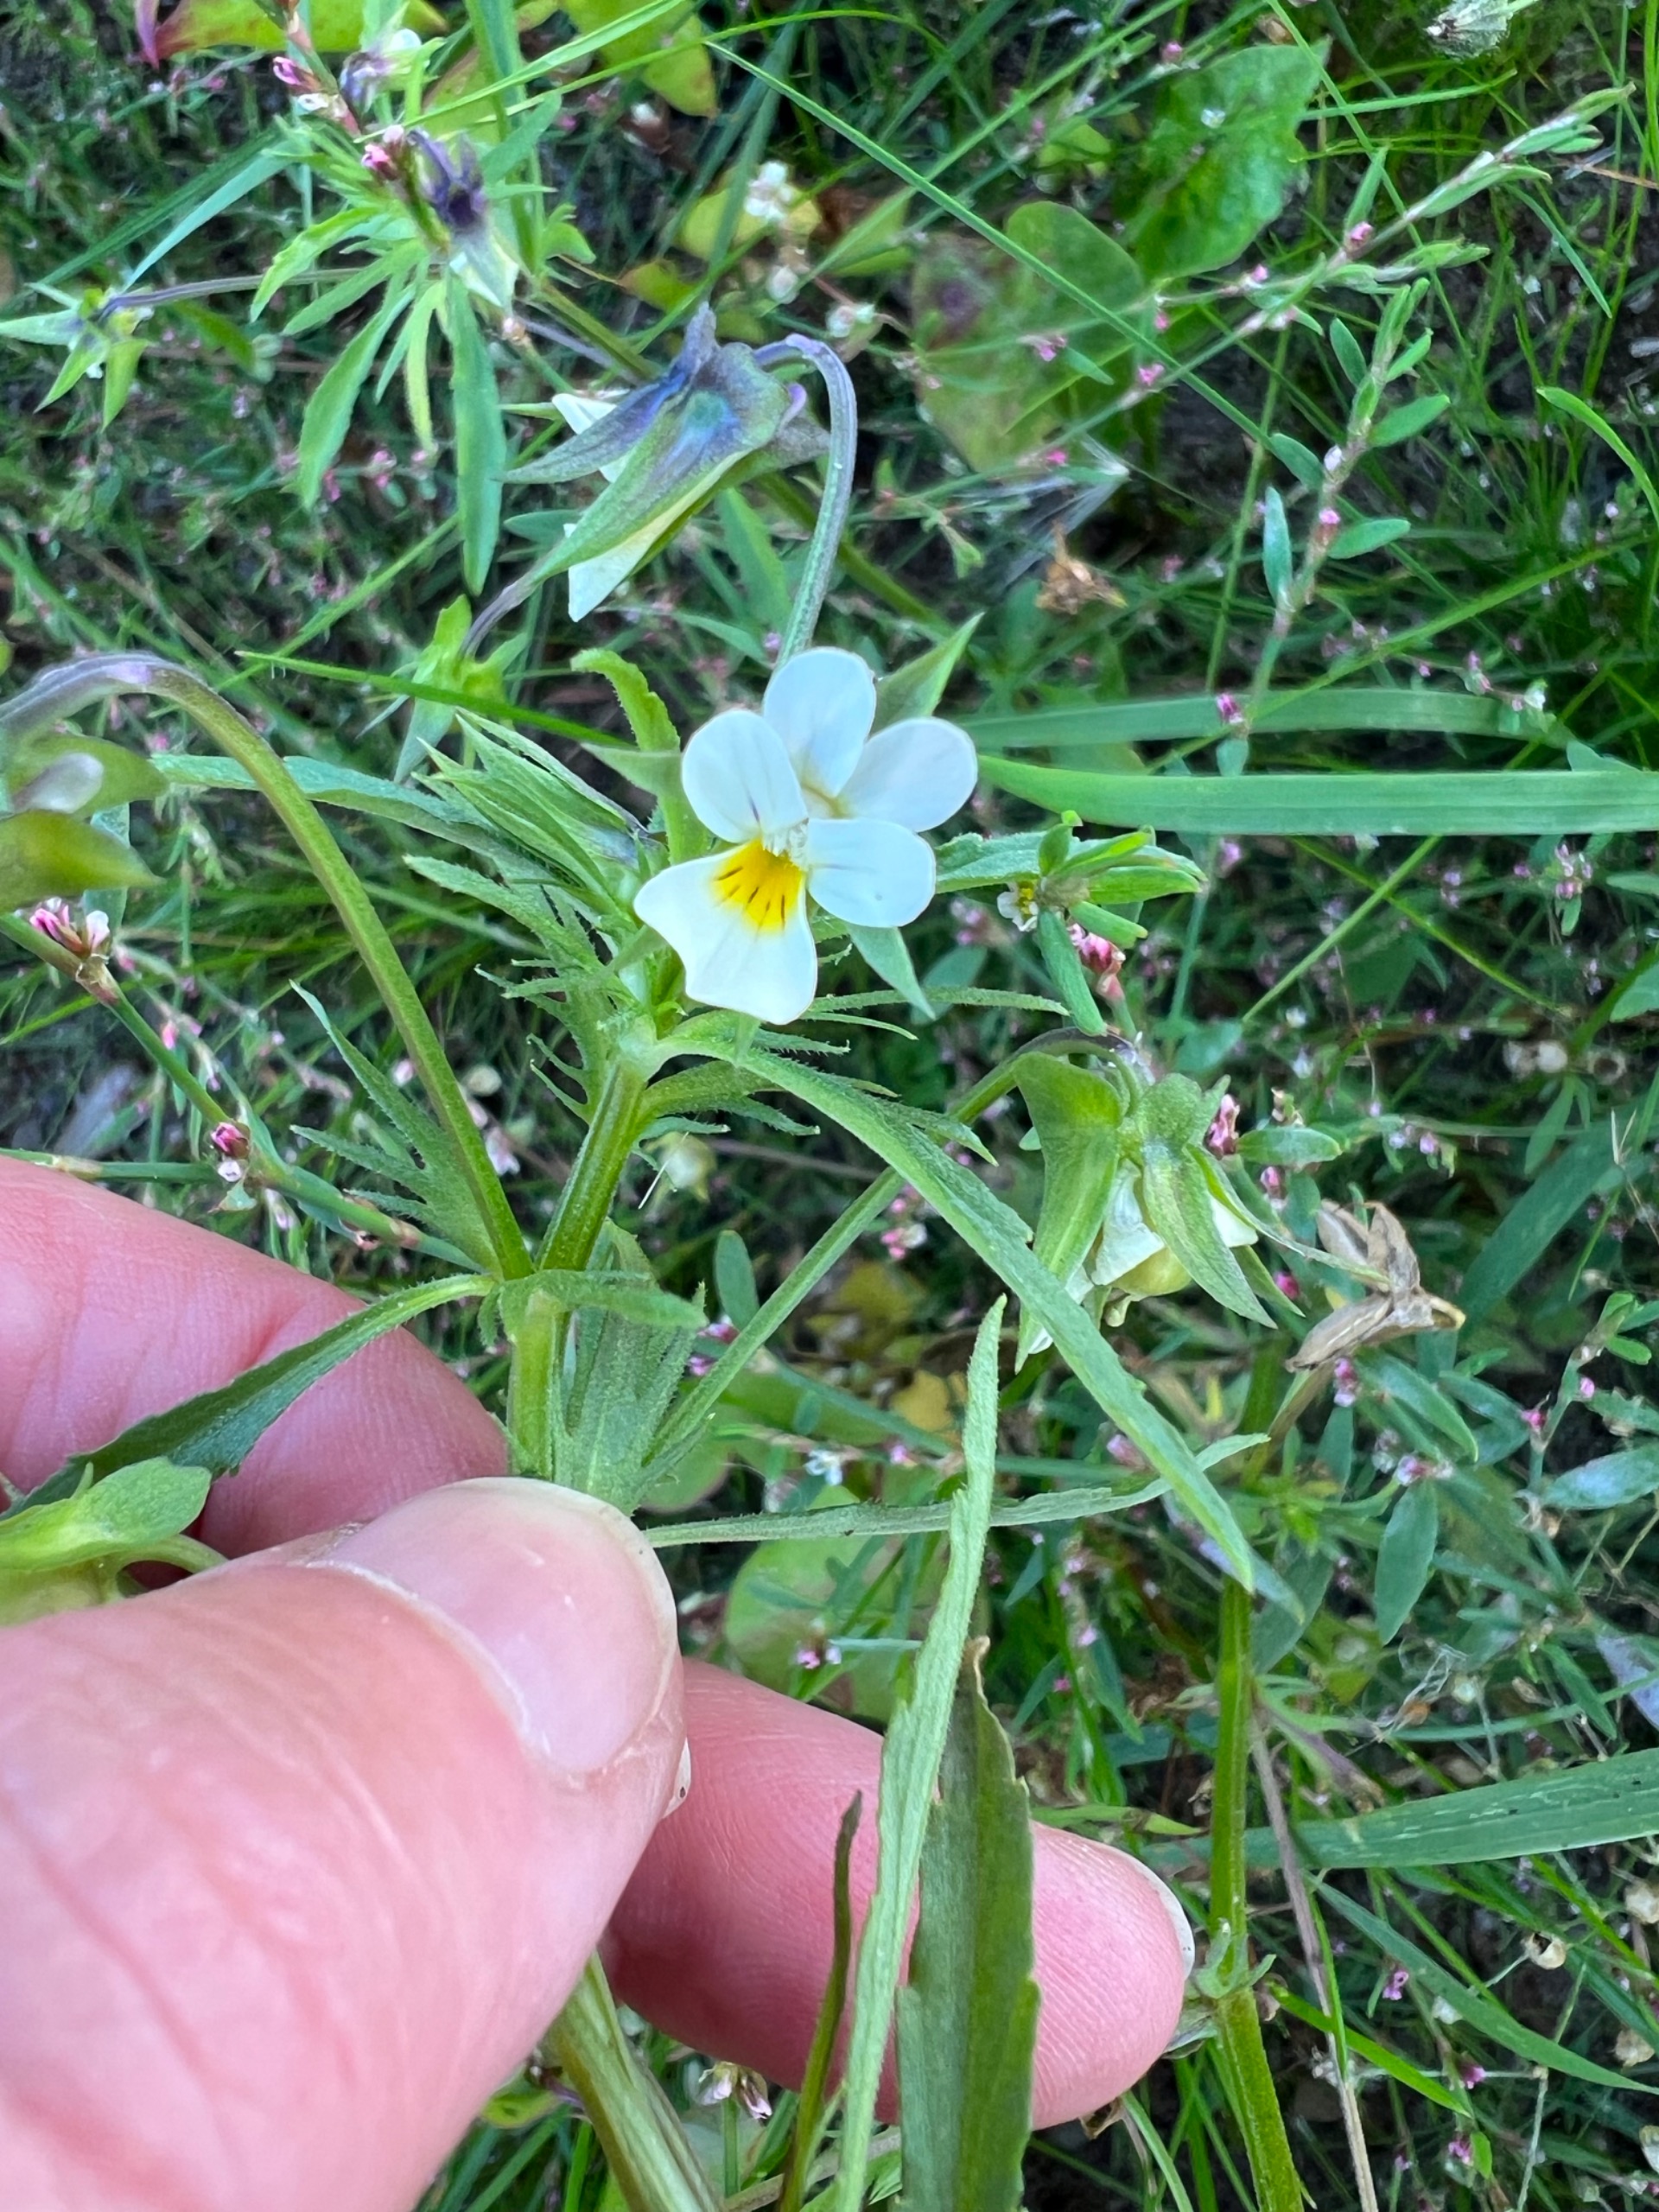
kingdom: Plantae
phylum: Tracheophyta
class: Magnoliopsida
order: Malpighiales
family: Violaceae
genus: Viola
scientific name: Viola arvensis
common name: Ager-stedmoderblomst
